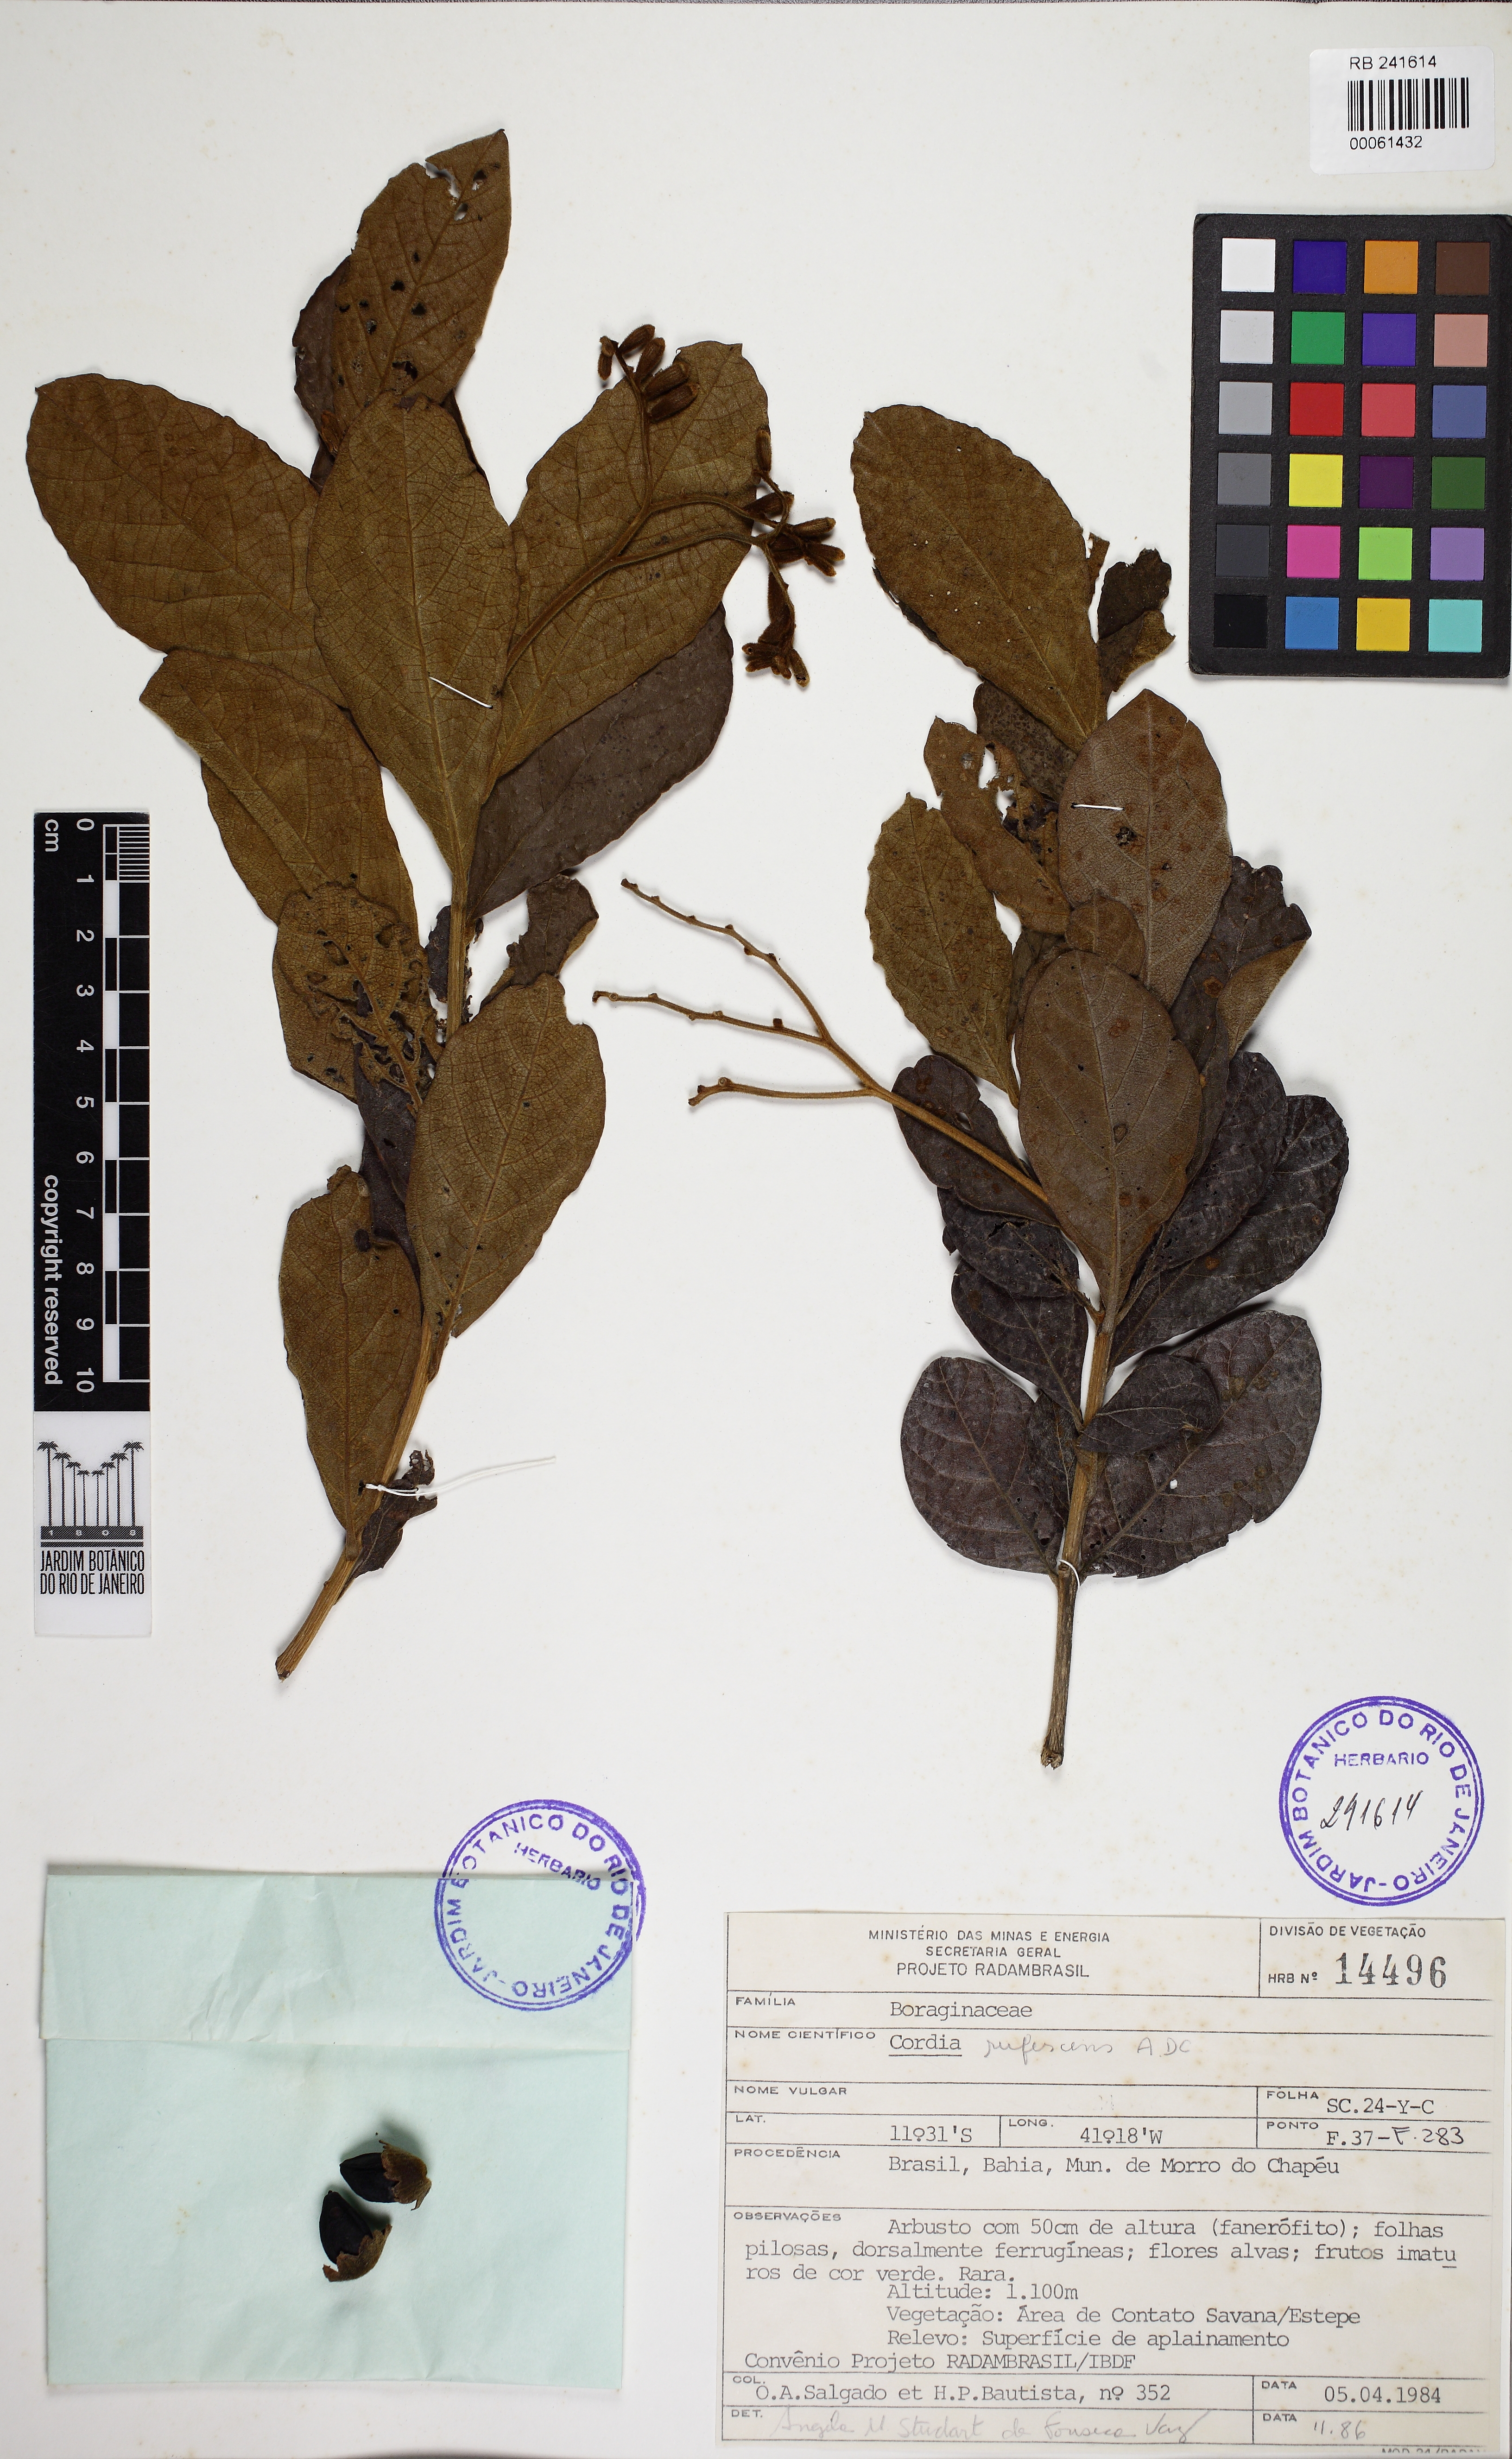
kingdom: Plantae
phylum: Tracheophyta
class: Magnoliopsida
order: Boraginales
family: Cordiaceae
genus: Cordia
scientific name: Cordia rufescens
